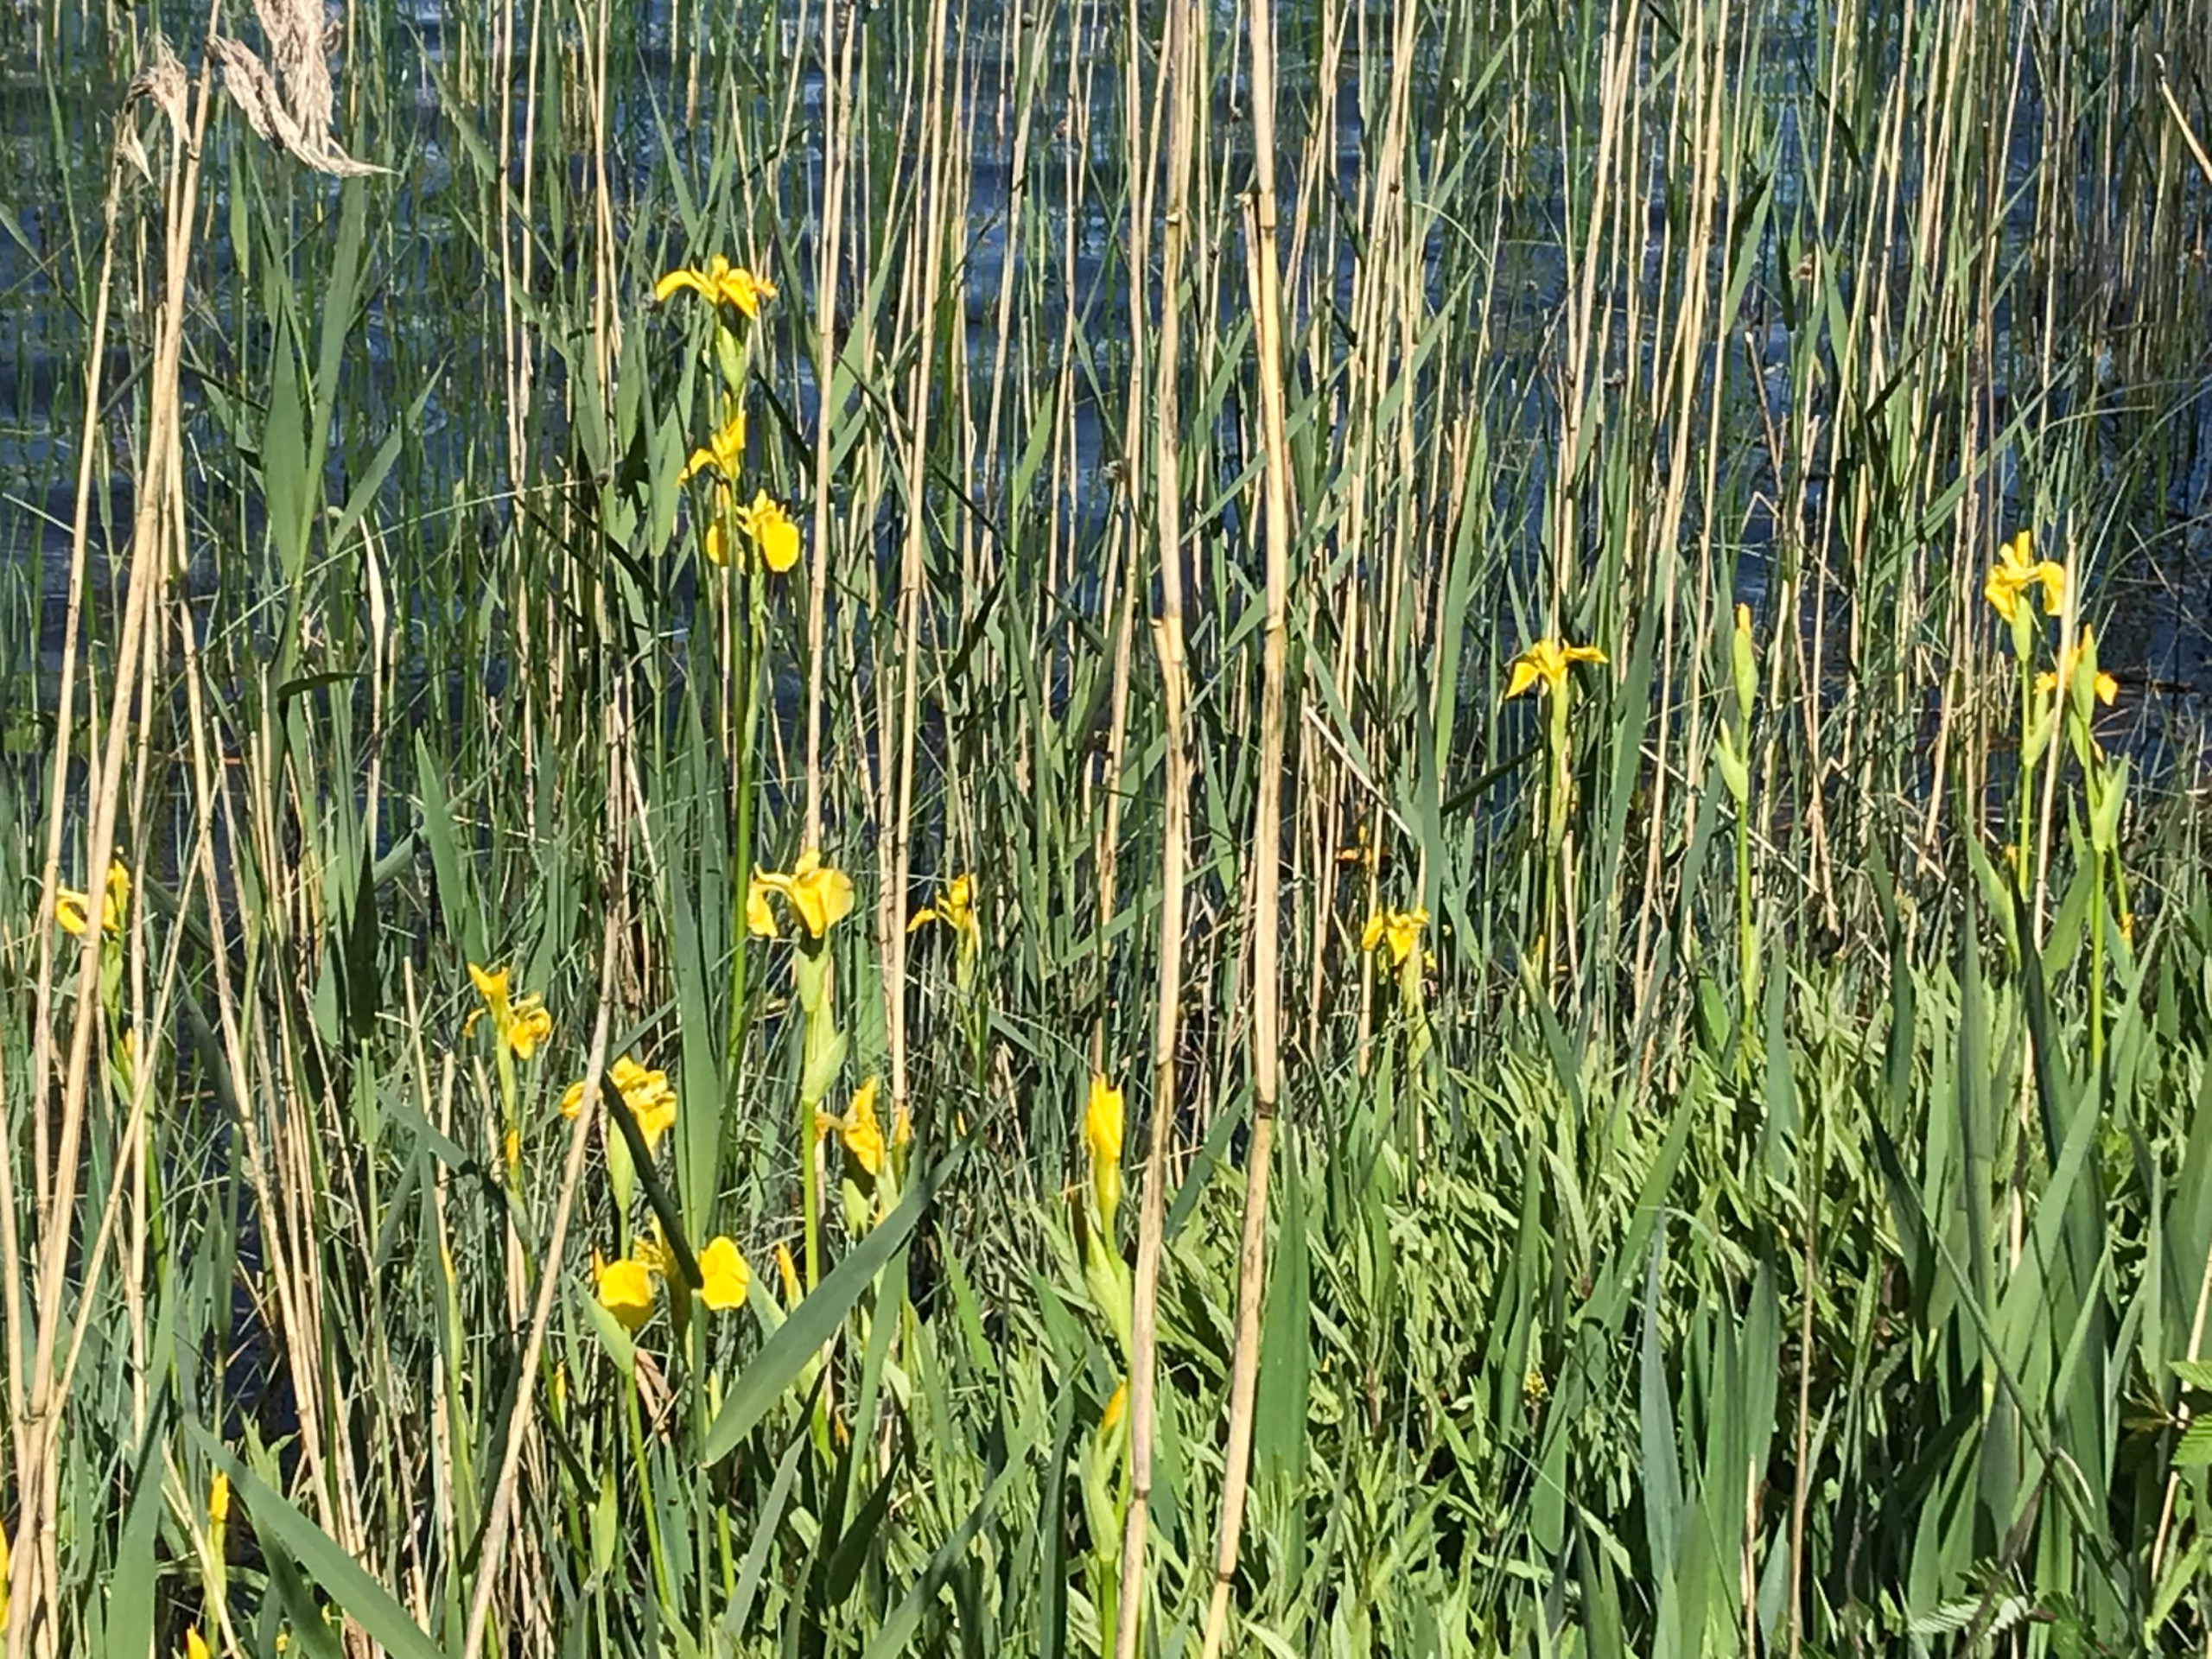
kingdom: Plantae
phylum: Tracheophyta
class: Liliopsida
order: Asparagales
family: Iridaceae
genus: Iris
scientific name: Iris pseudacorus
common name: Gul iris
